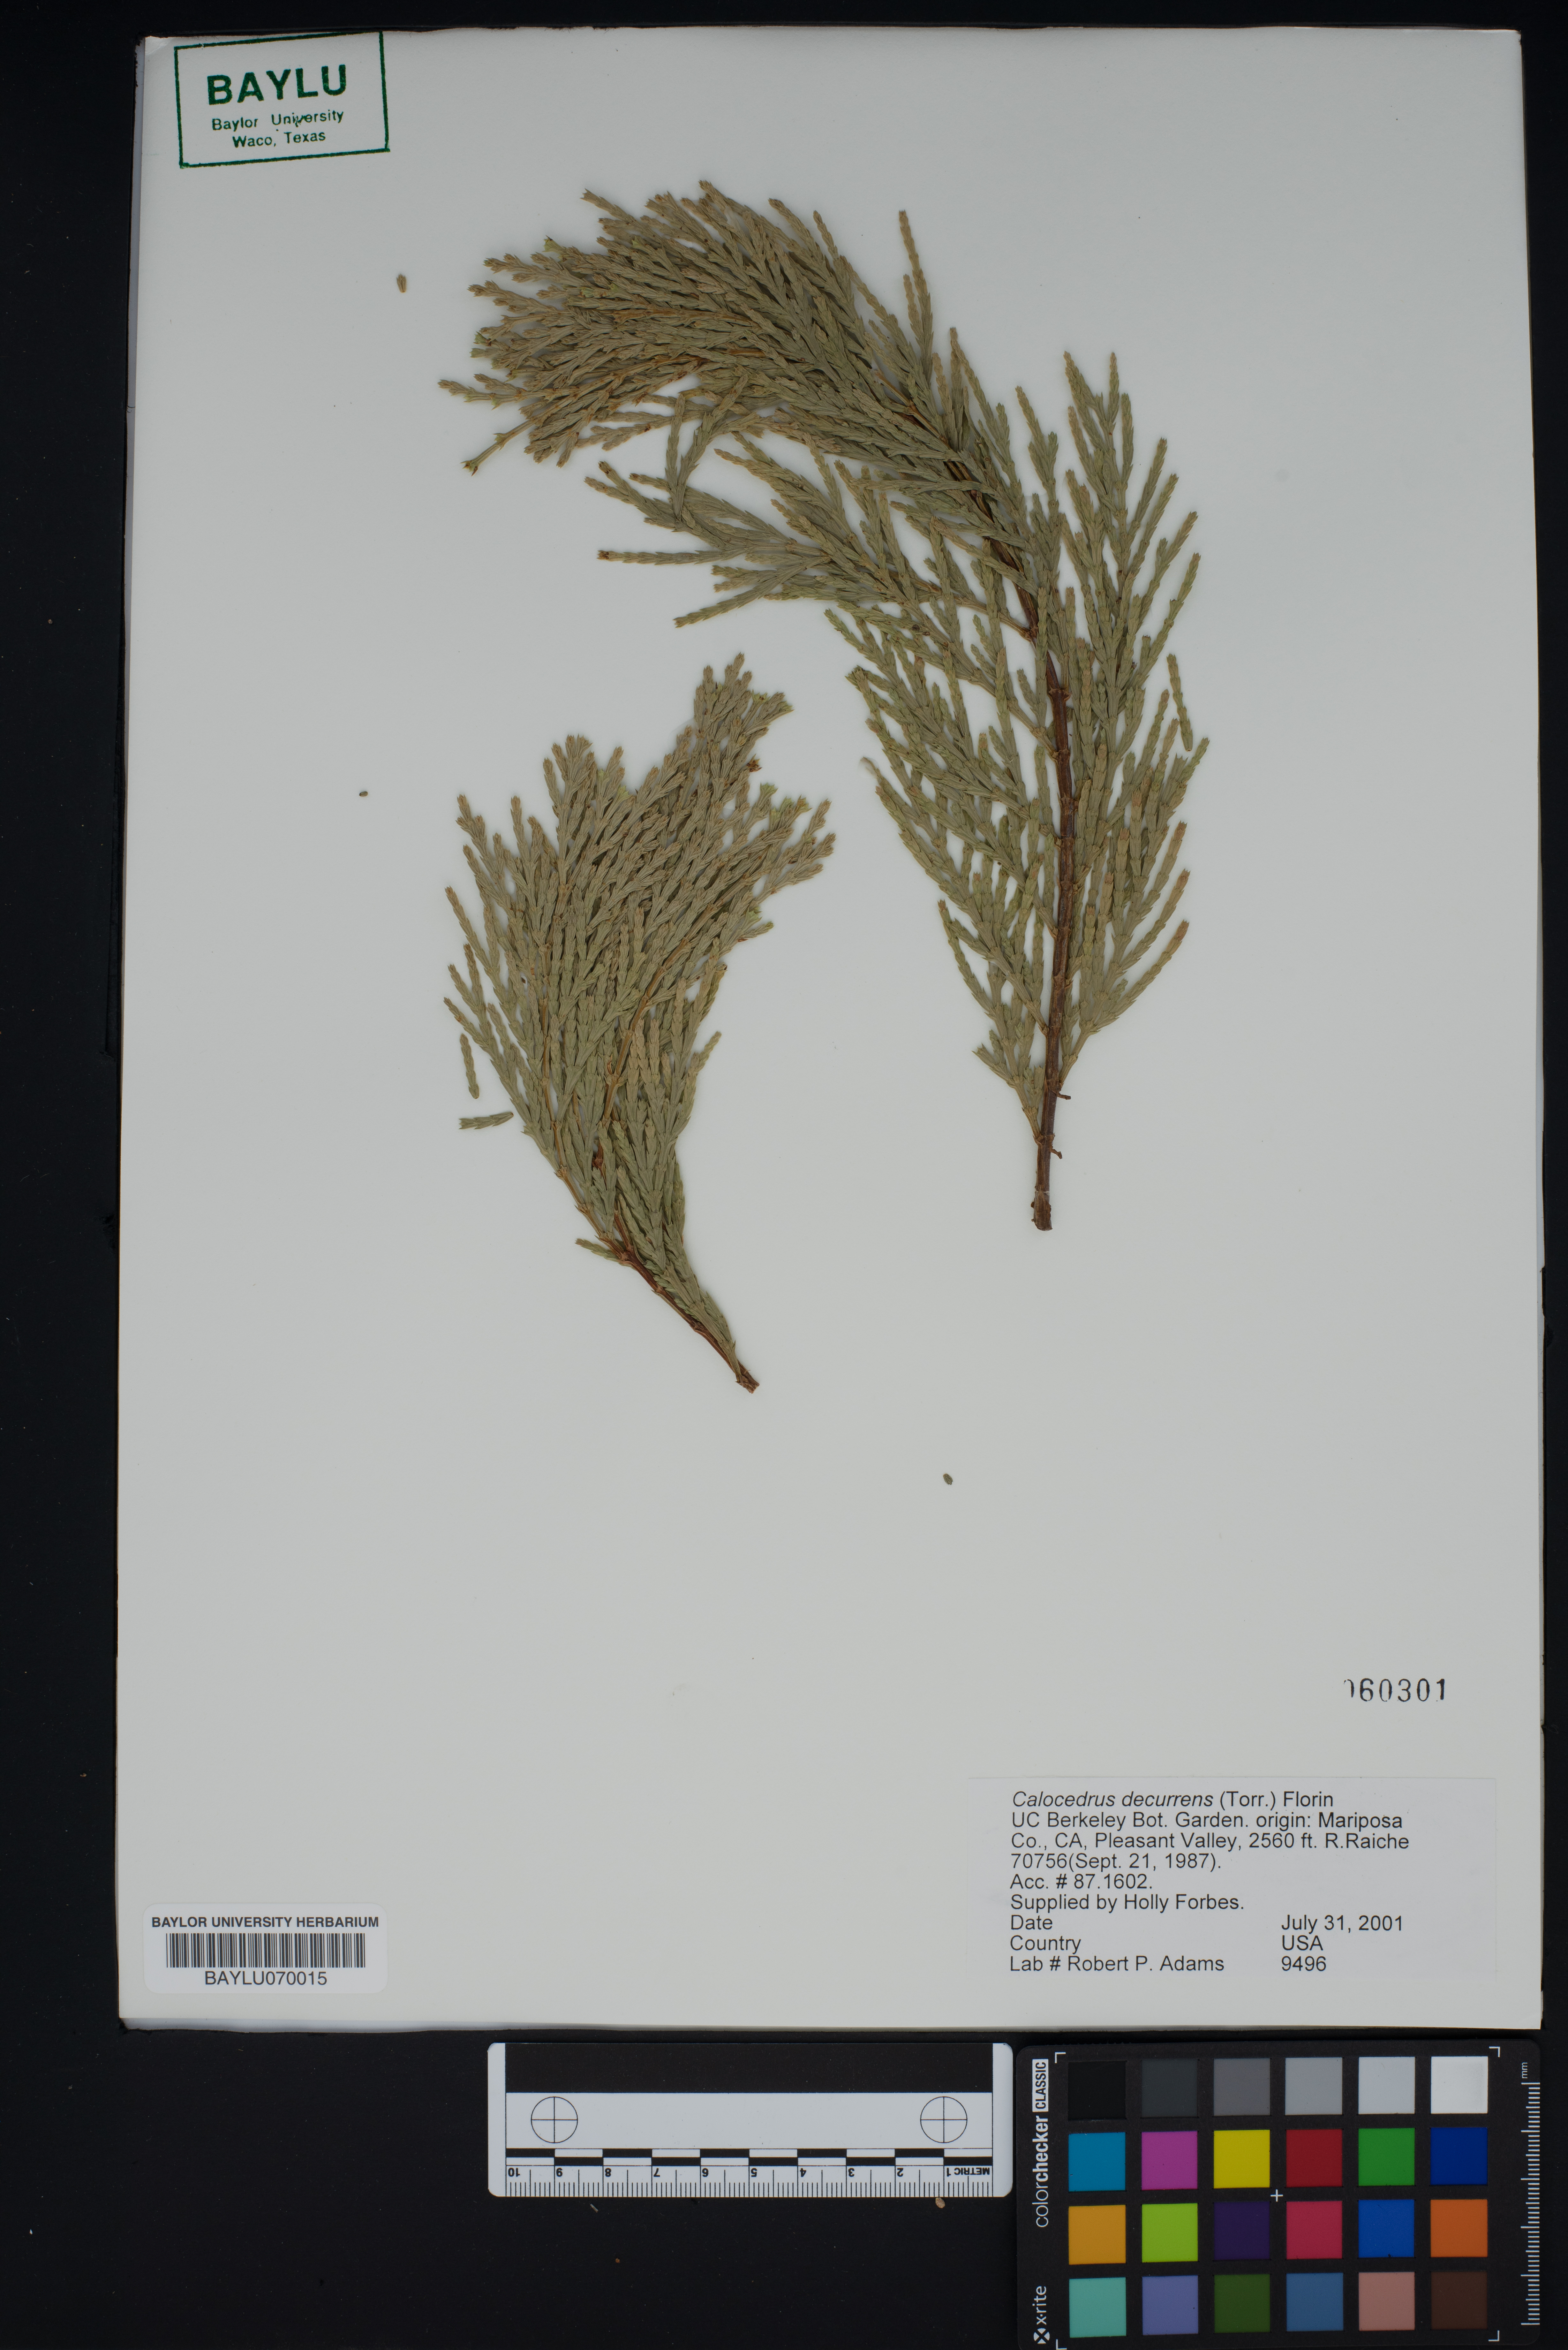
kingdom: Plantae
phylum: Tracheophyta
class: Pinopsida
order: Pinales
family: Cupressaceae
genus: Calocedrus
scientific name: Calocedrus decurrens
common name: Californian incense-cedar
